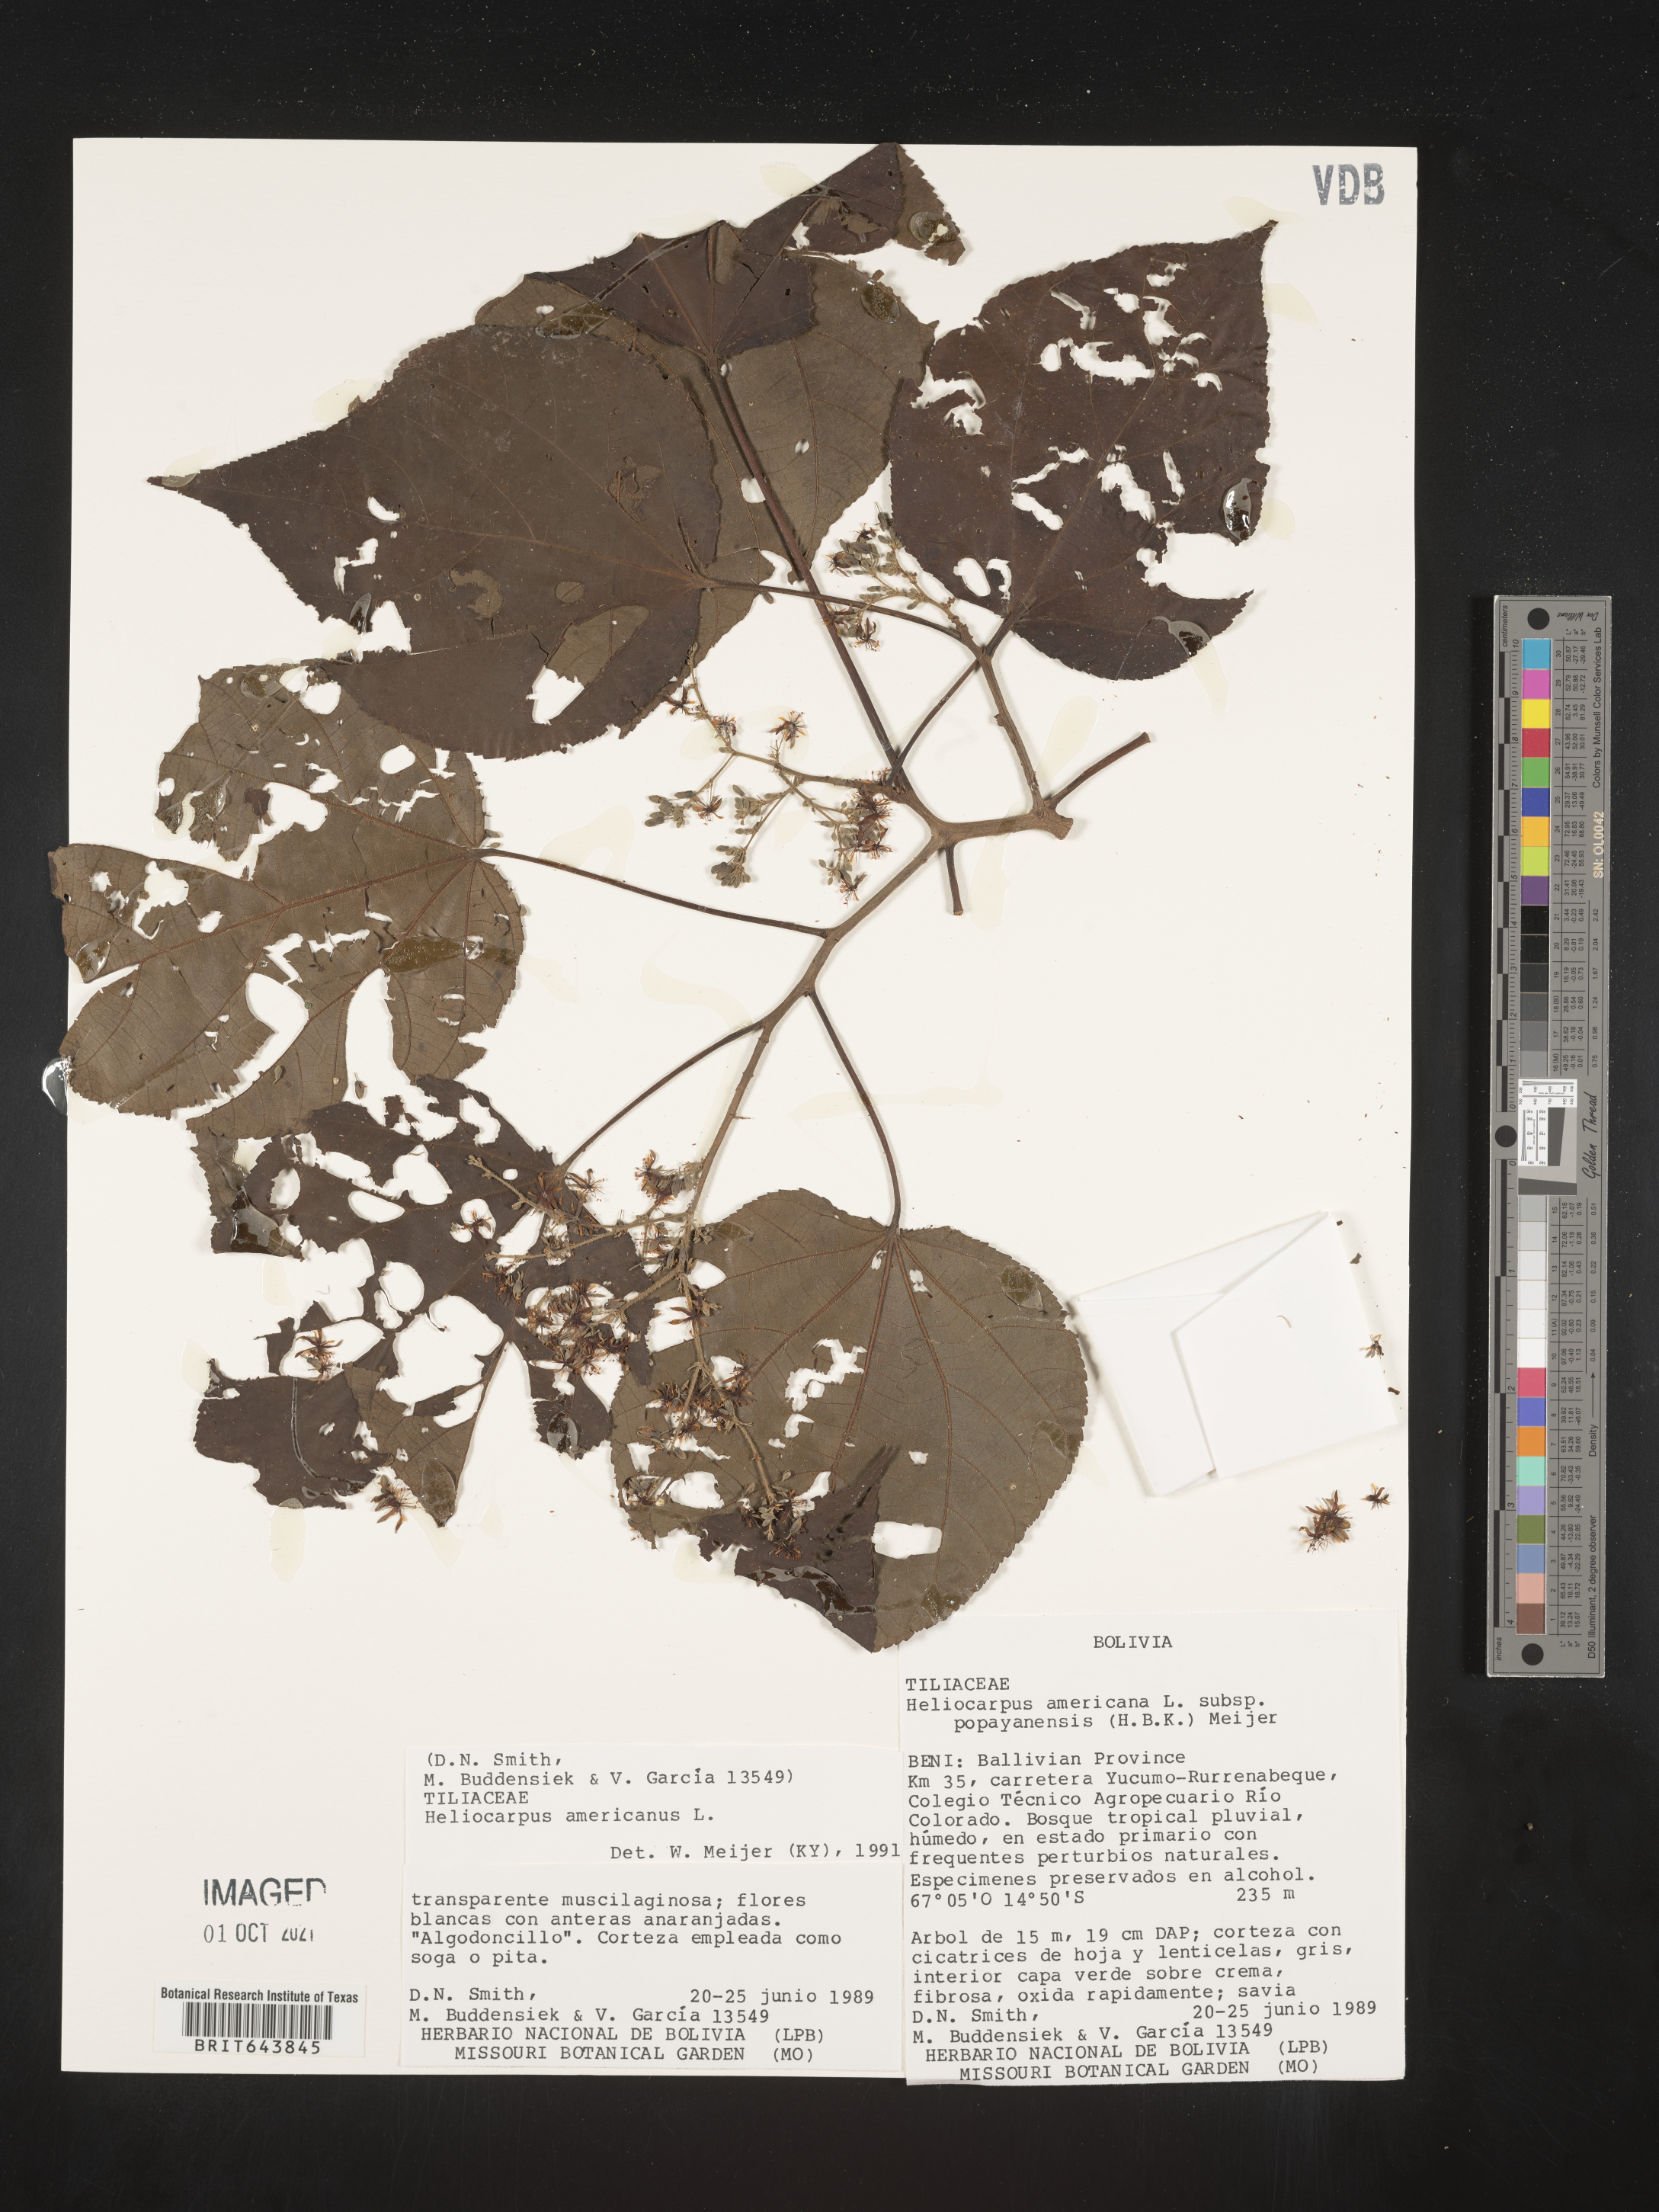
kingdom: Plantae
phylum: Tracheophyta
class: Magnoliopsida
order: Malvales
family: Malvaceae
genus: Heliocarpus
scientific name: Heliocarpus
